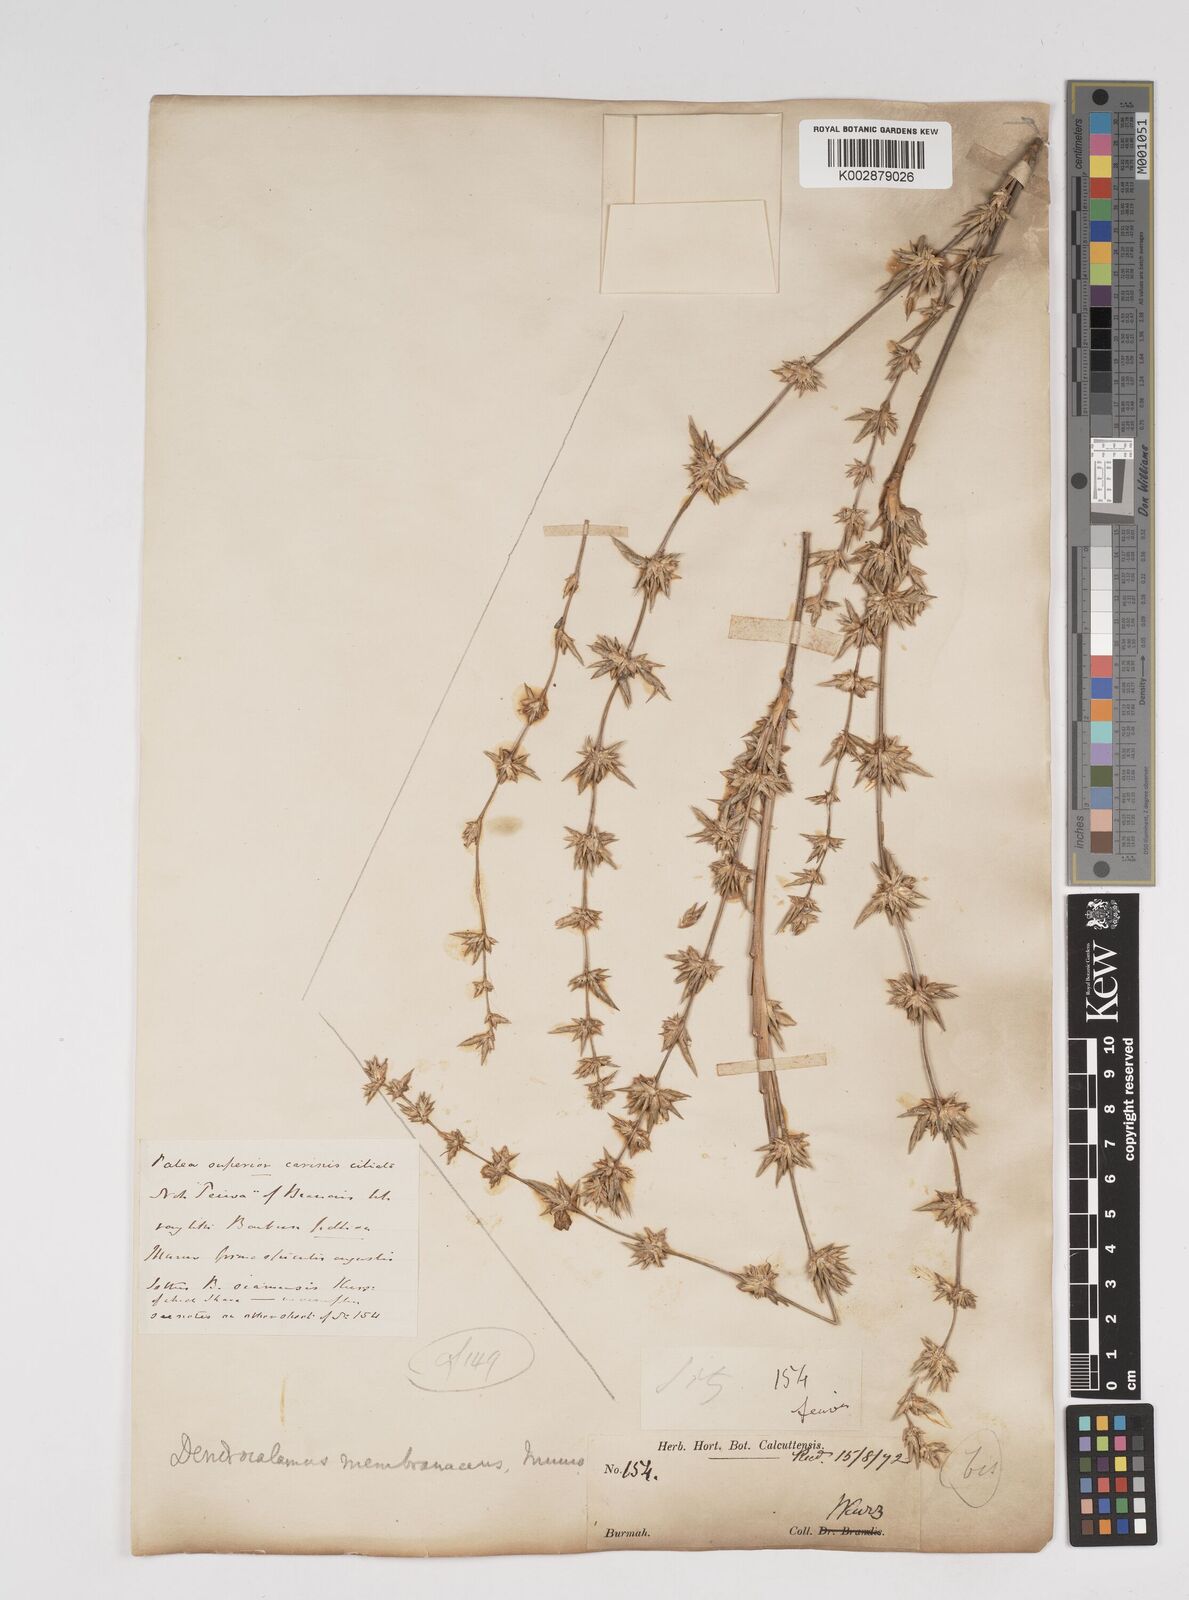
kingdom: Plantae
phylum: Tracheophyta
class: Liliopsida
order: Poales
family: Poaceae
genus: Dendrocalamus
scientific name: Dendrocalamus
